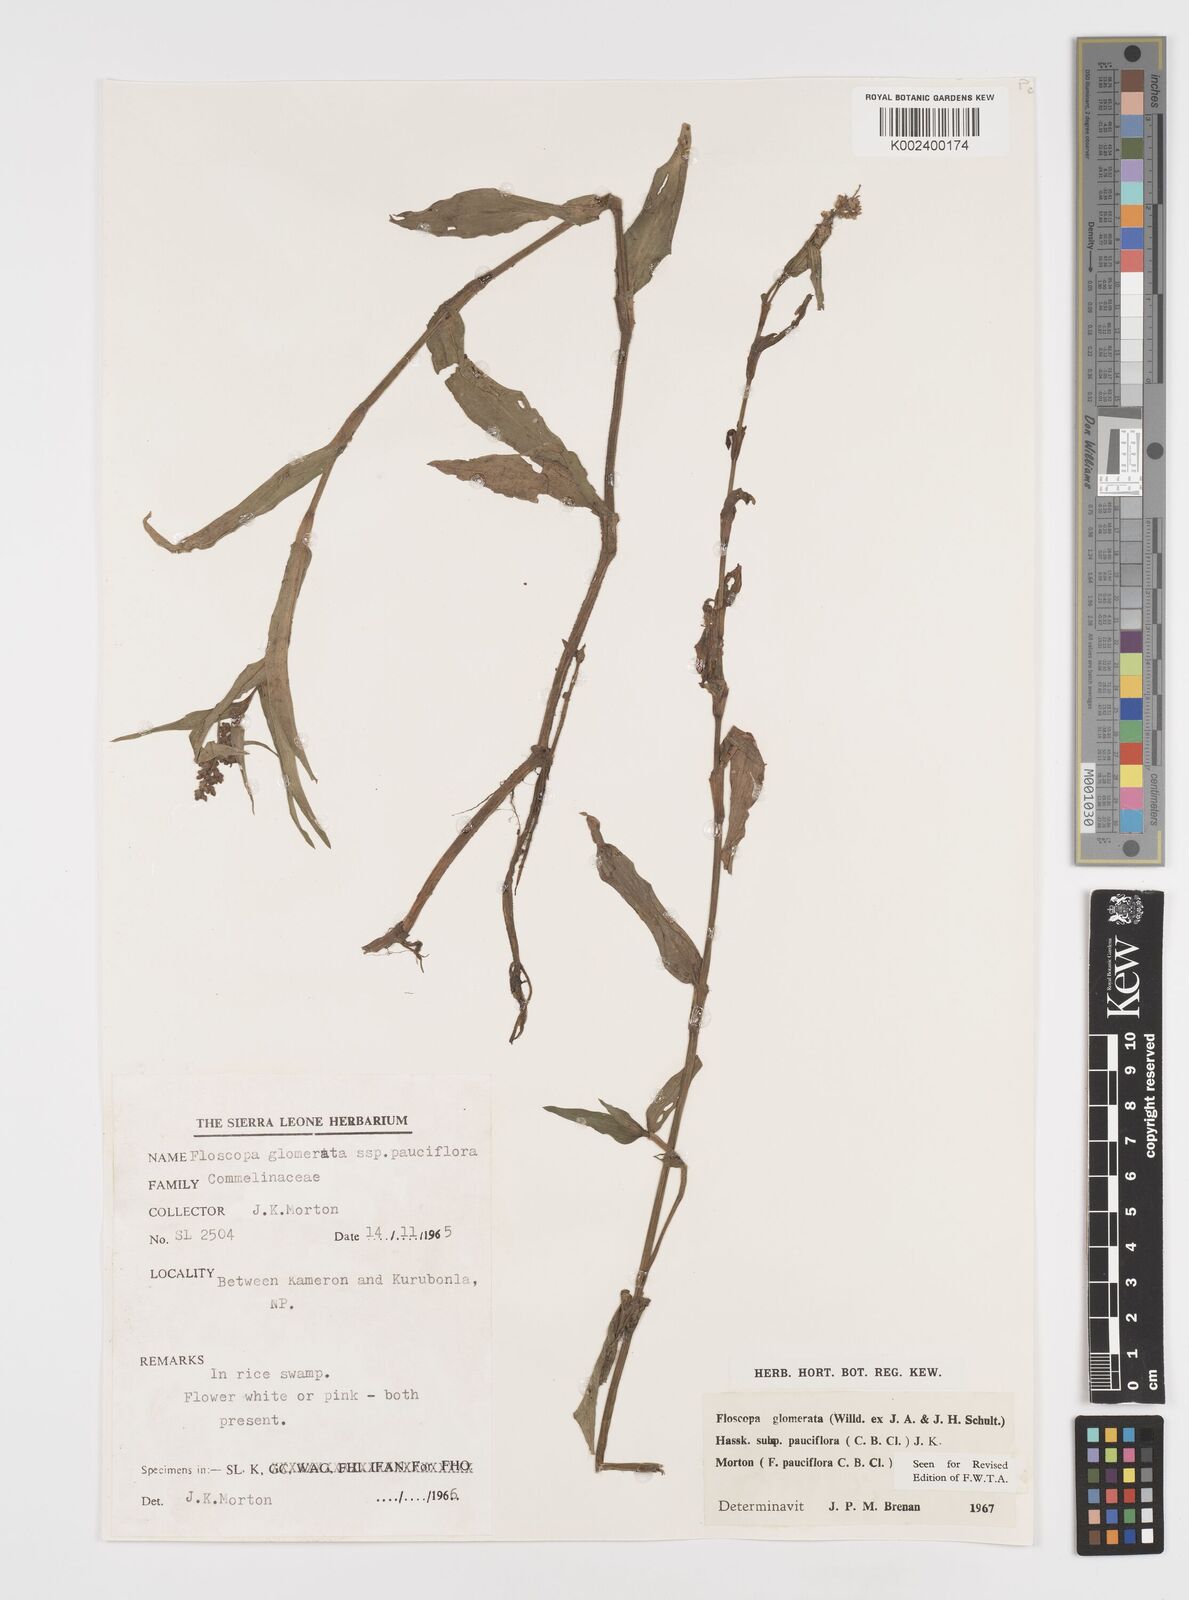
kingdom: Plantae
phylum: Tracheophyta
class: Liliopsida
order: Commelinales
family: Commelinaceae
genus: Floscopa
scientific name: Floscopa glomerata
